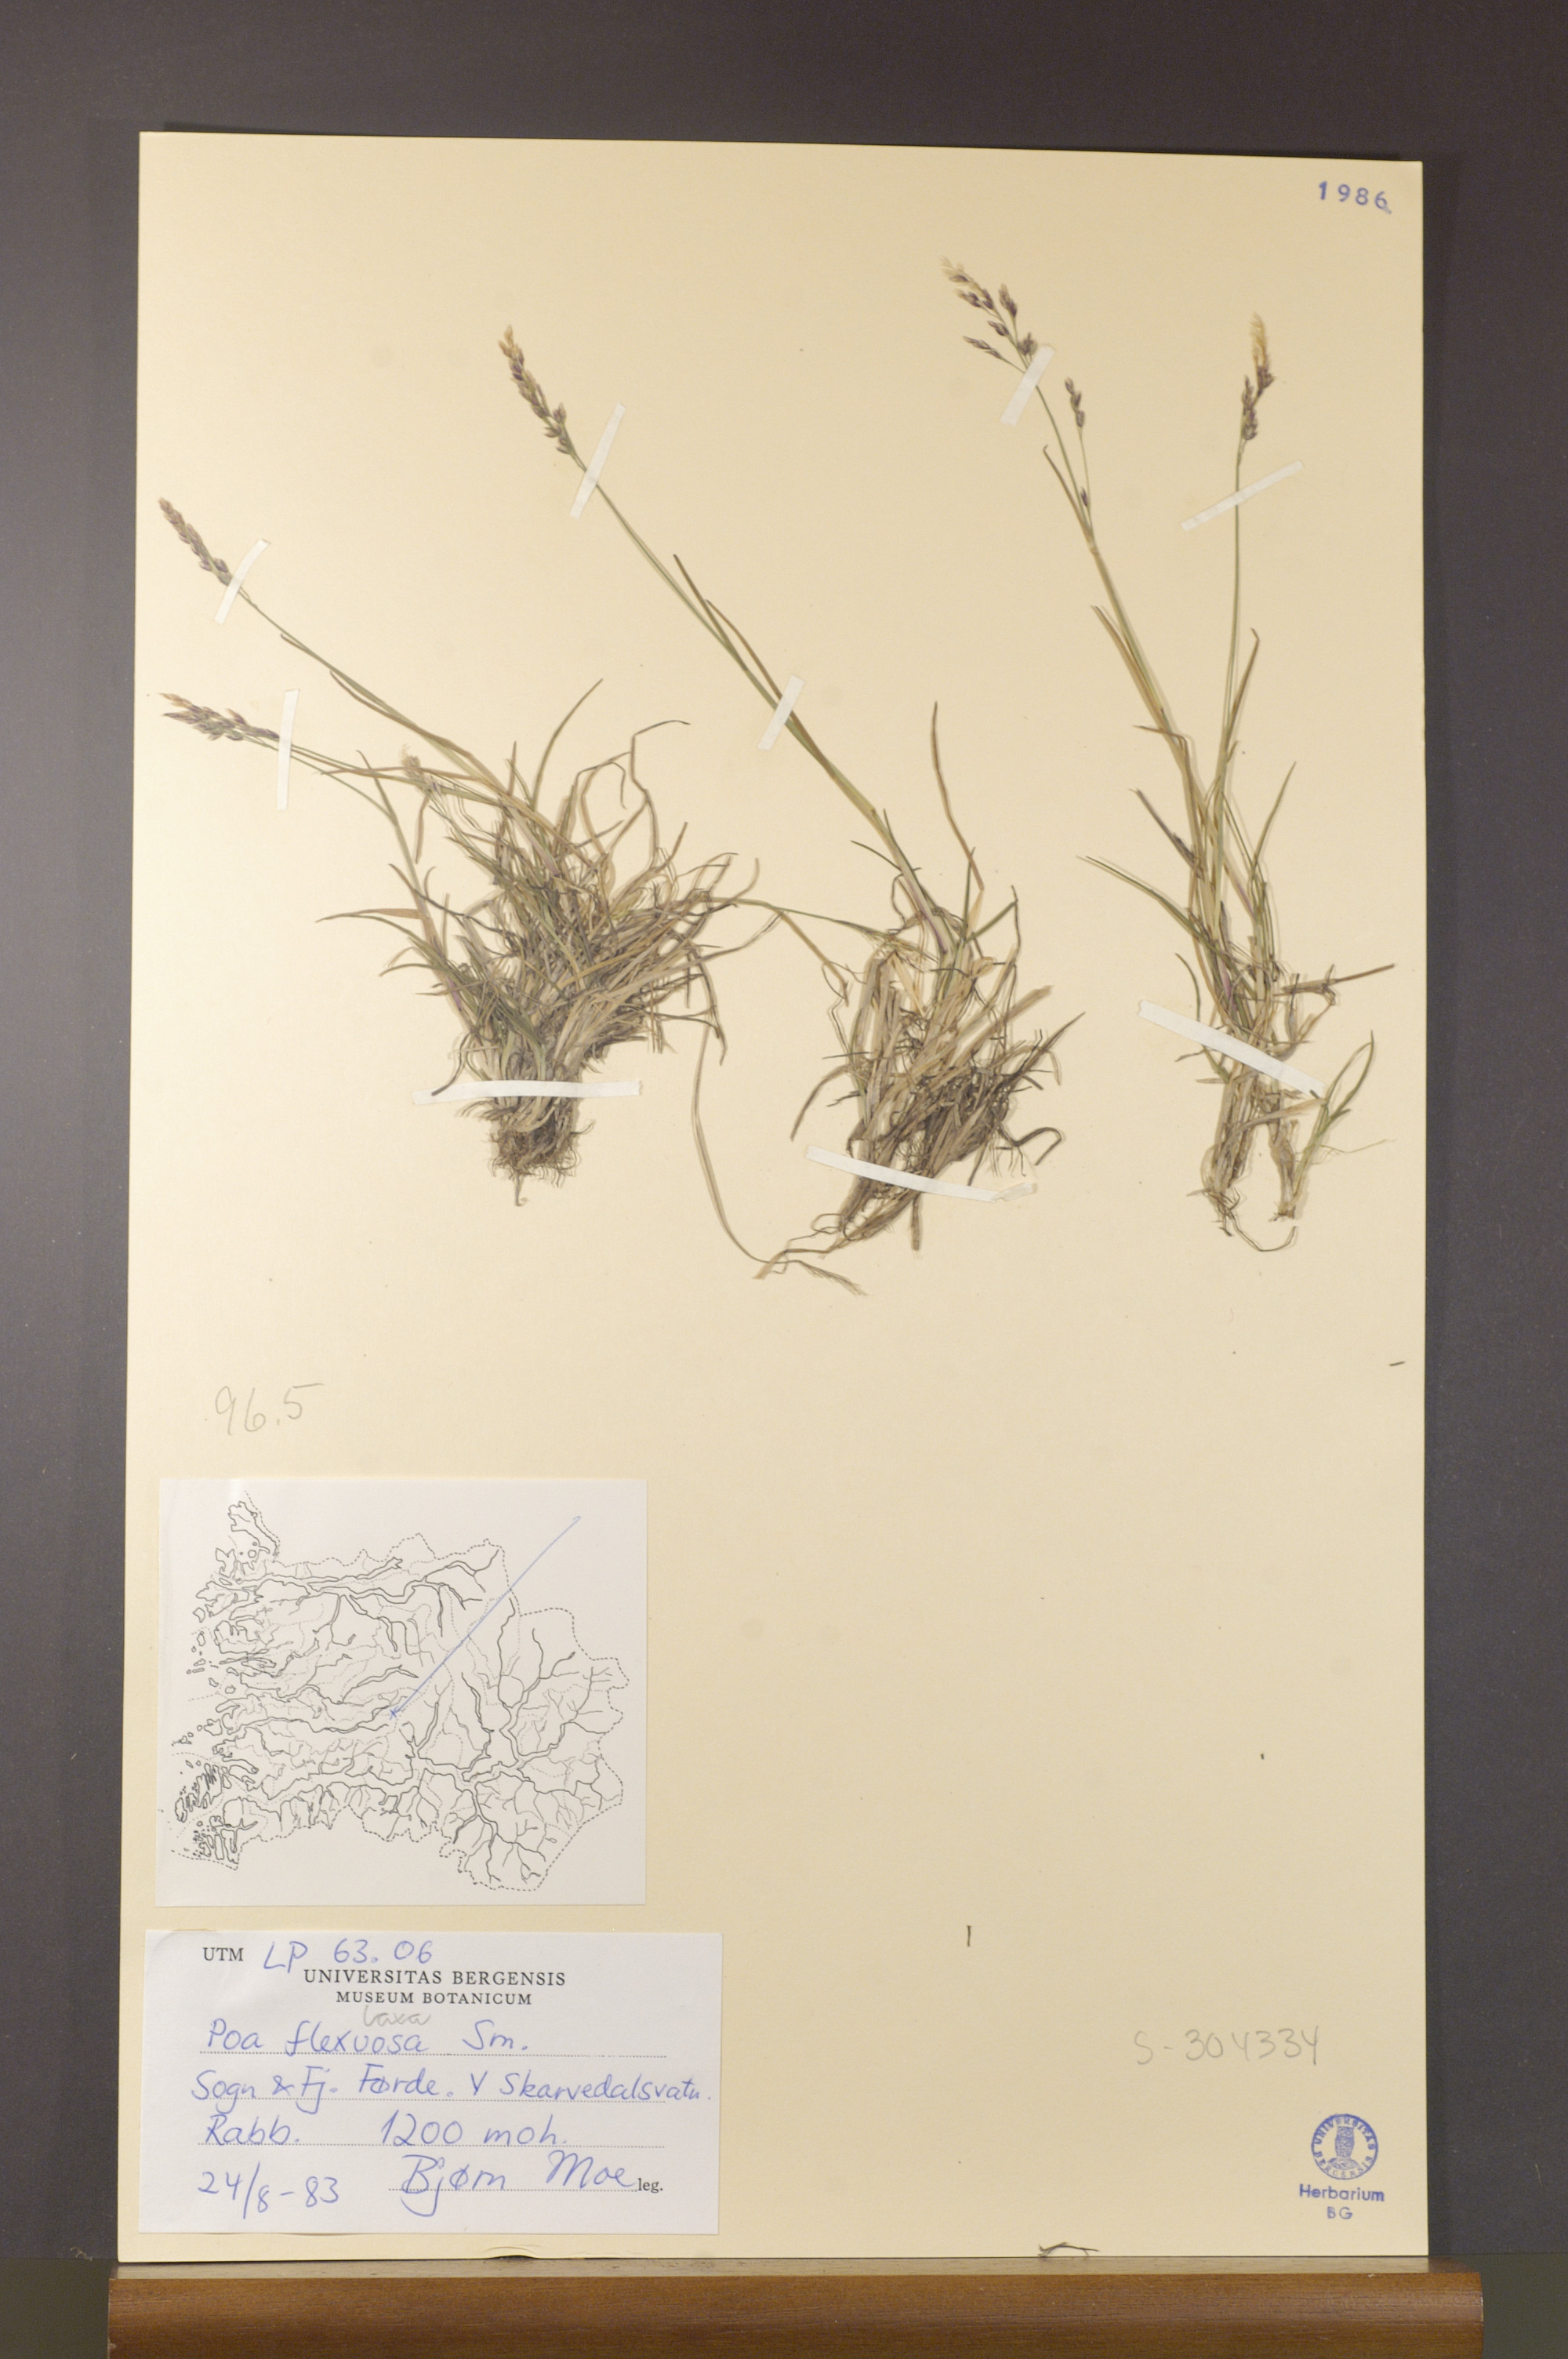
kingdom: Plantae
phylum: Tracheophyta
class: Liliopsida
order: Poales
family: Poaceae
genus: Poa
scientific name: Poa flexuosa
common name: Wavy meadow-grass
